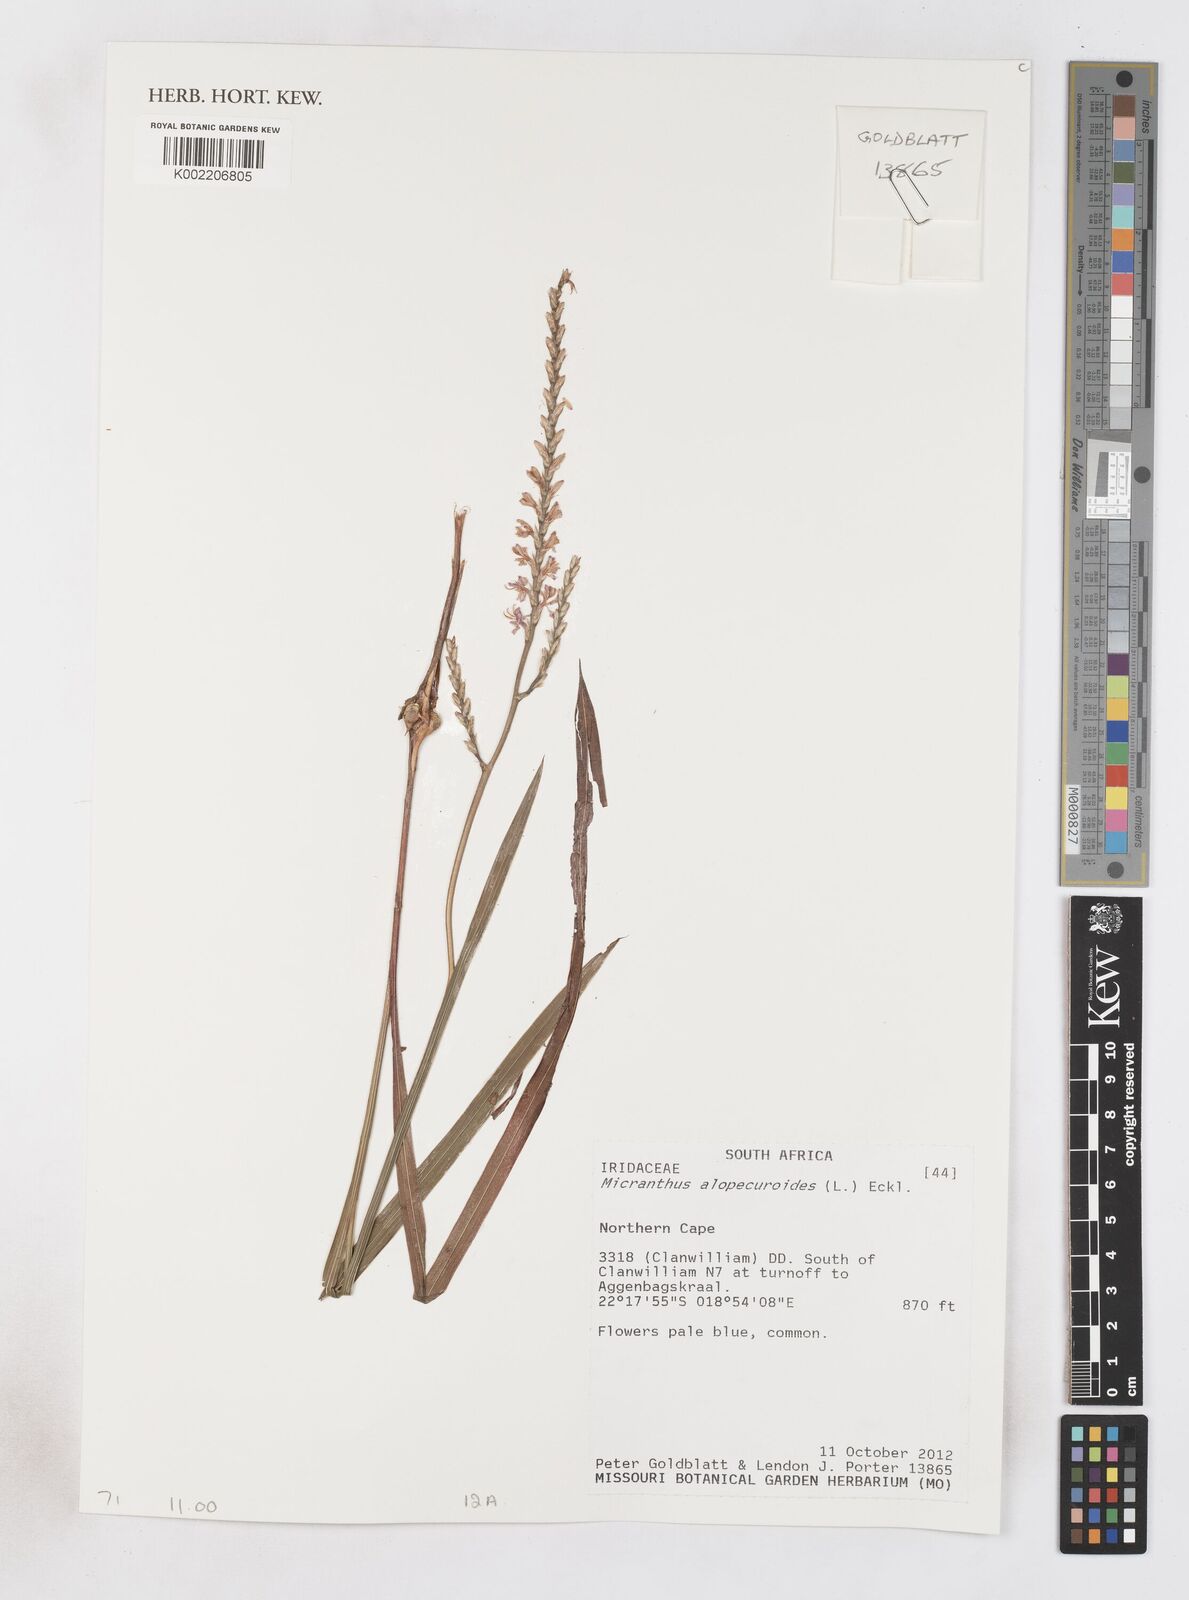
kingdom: Plantae
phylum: Tracheophyta
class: Liliopsida
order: Asparagales
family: Iridaceae
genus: Micranthus
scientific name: Micranthus alopecuroides
